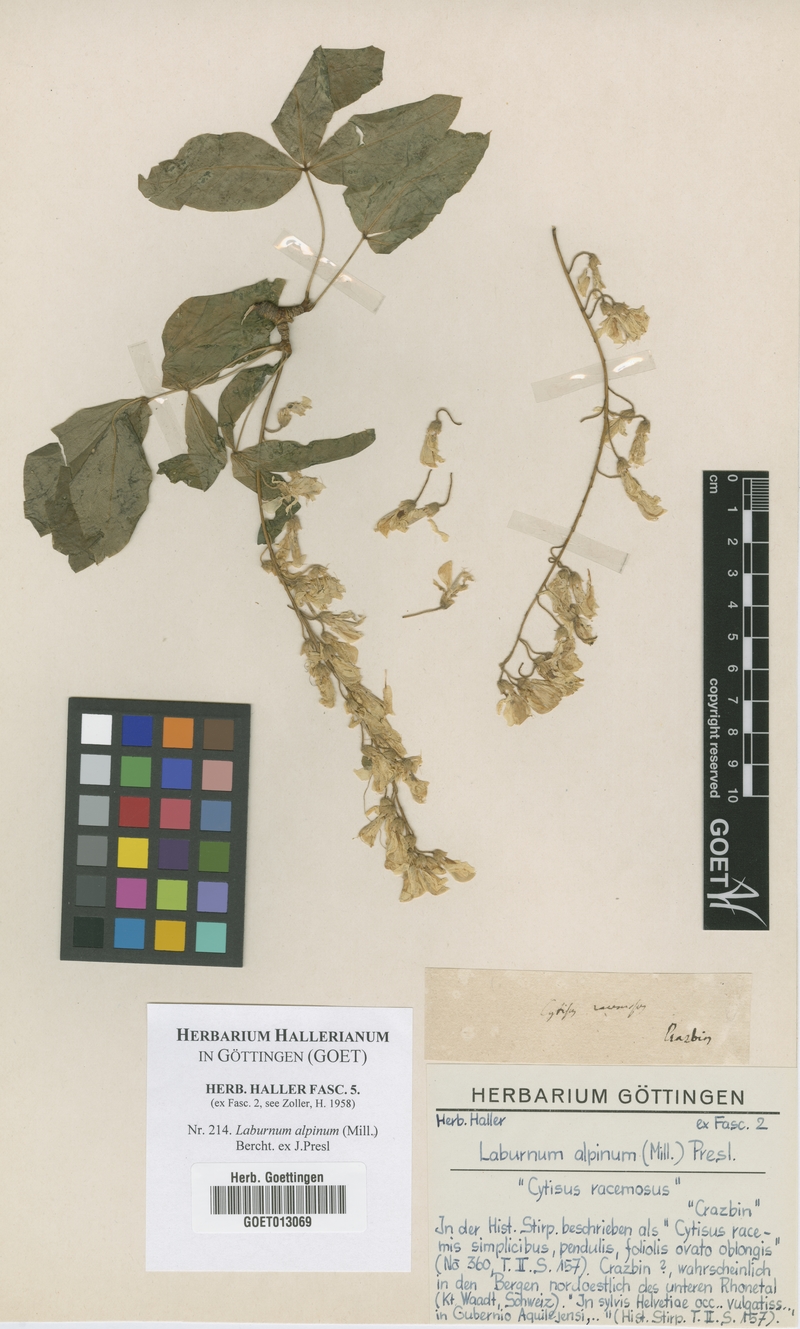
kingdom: Plantae
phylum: Tracheophyta
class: Magnoliopsida
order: Fabales
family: Fabaceae
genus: Laburnum
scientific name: Laburnum alpinum
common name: Scottish laburnum
